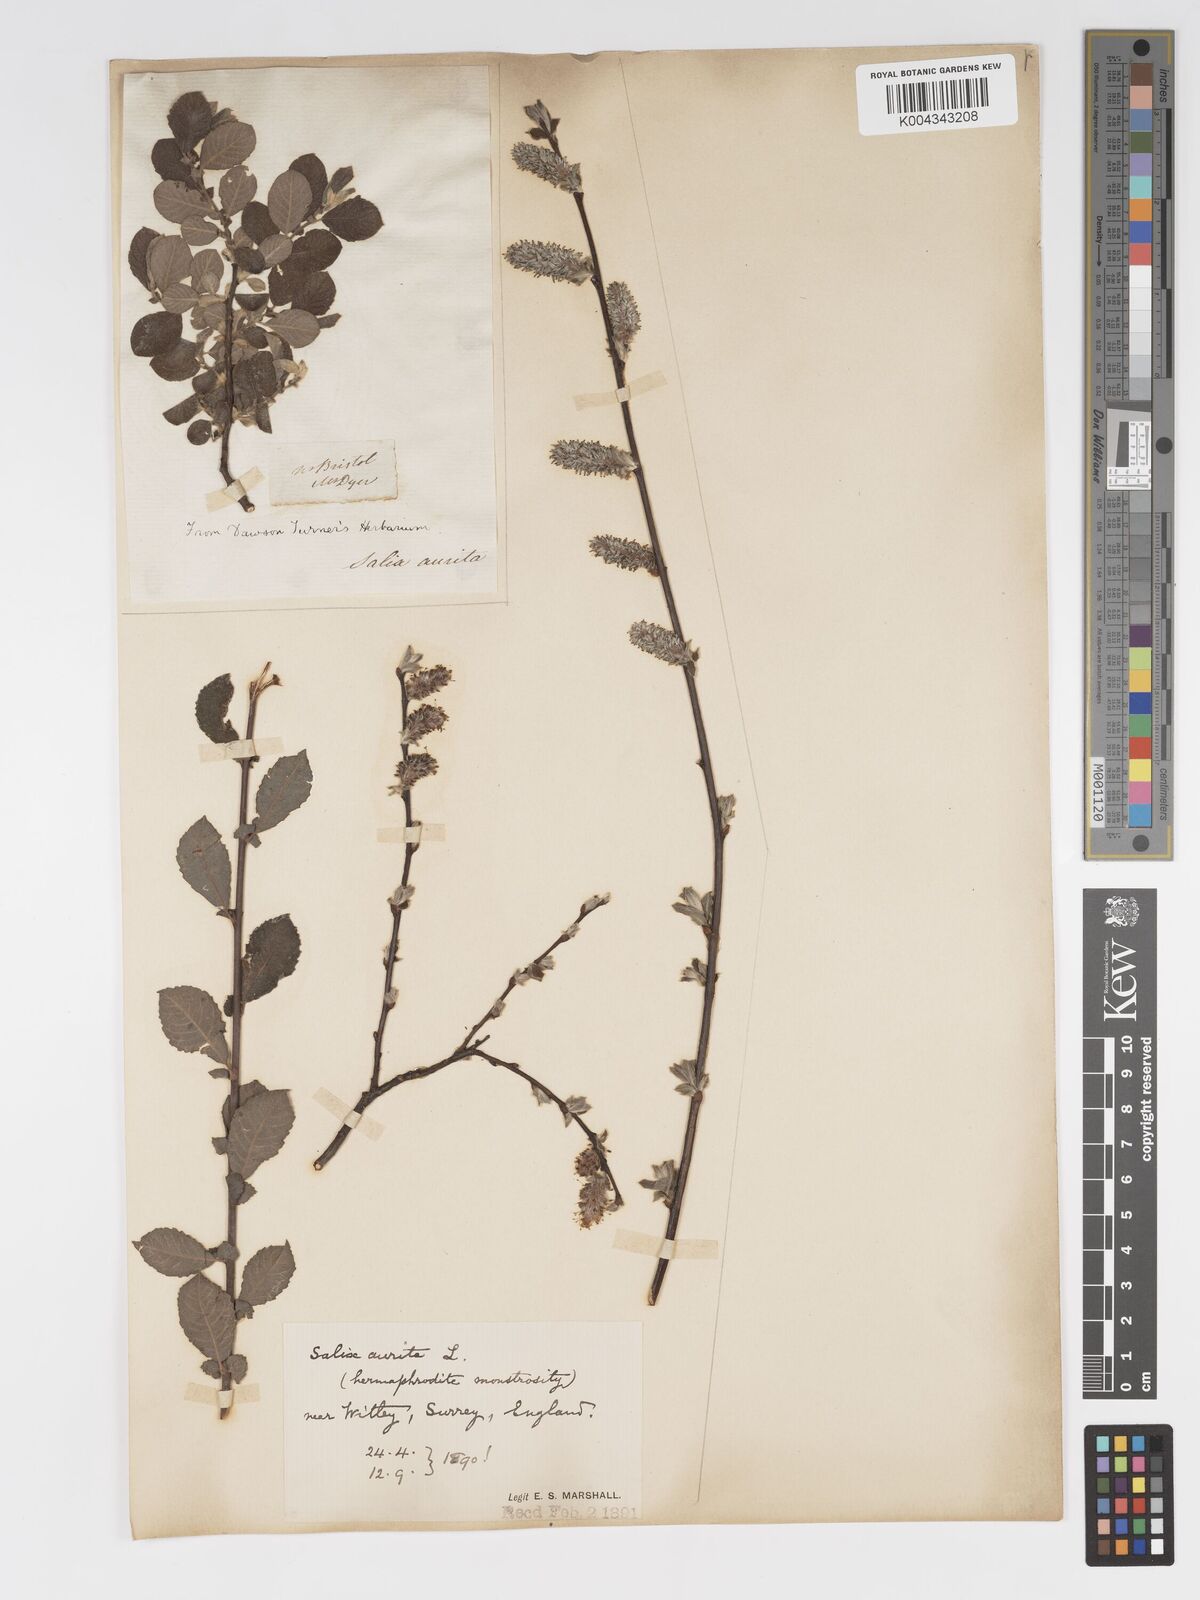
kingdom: Plantae
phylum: Tracheophyta
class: Magnoliopsida
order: Malpighiales
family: Salicaceae
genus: Salix
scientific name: Salix aurita
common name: Eared willow
